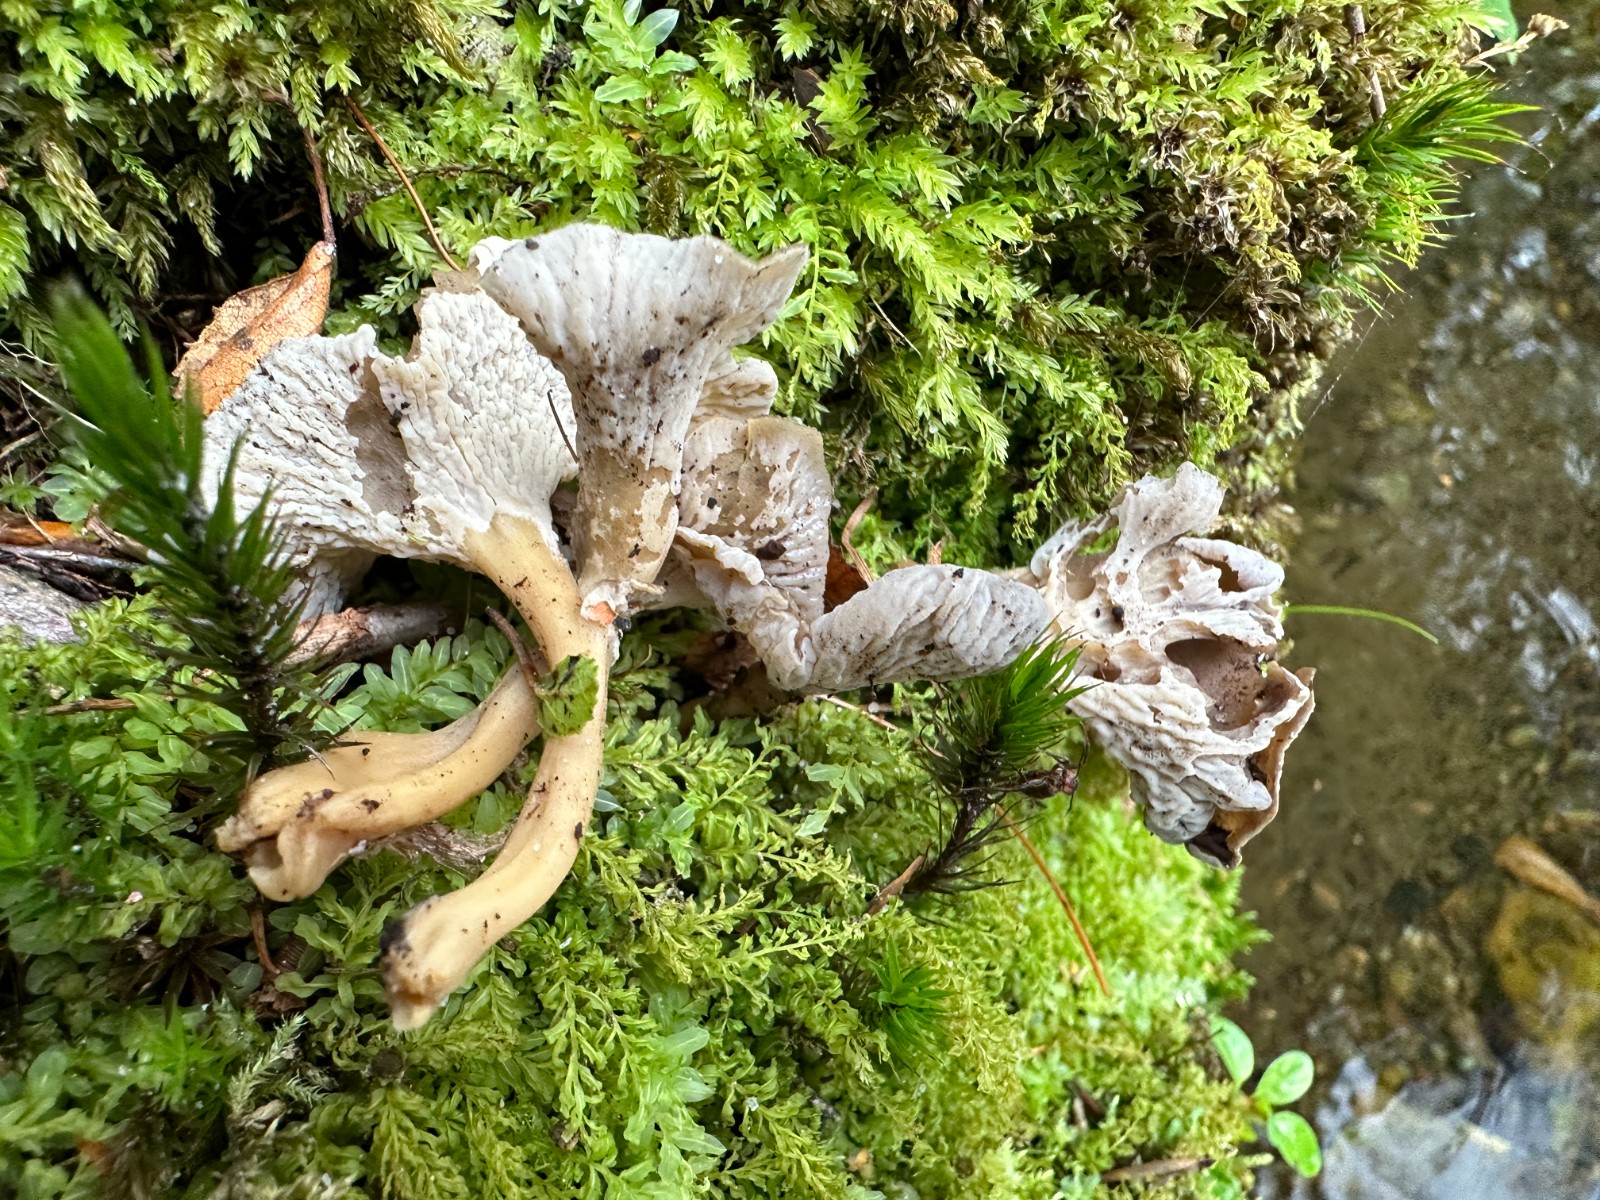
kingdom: Fungi
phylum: Basidiomycota
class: Agaricomycetes
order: Cantharellales
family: Hydnaceae
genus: Craterellus
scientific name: Craterellus undulatus
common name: liden kantarel
